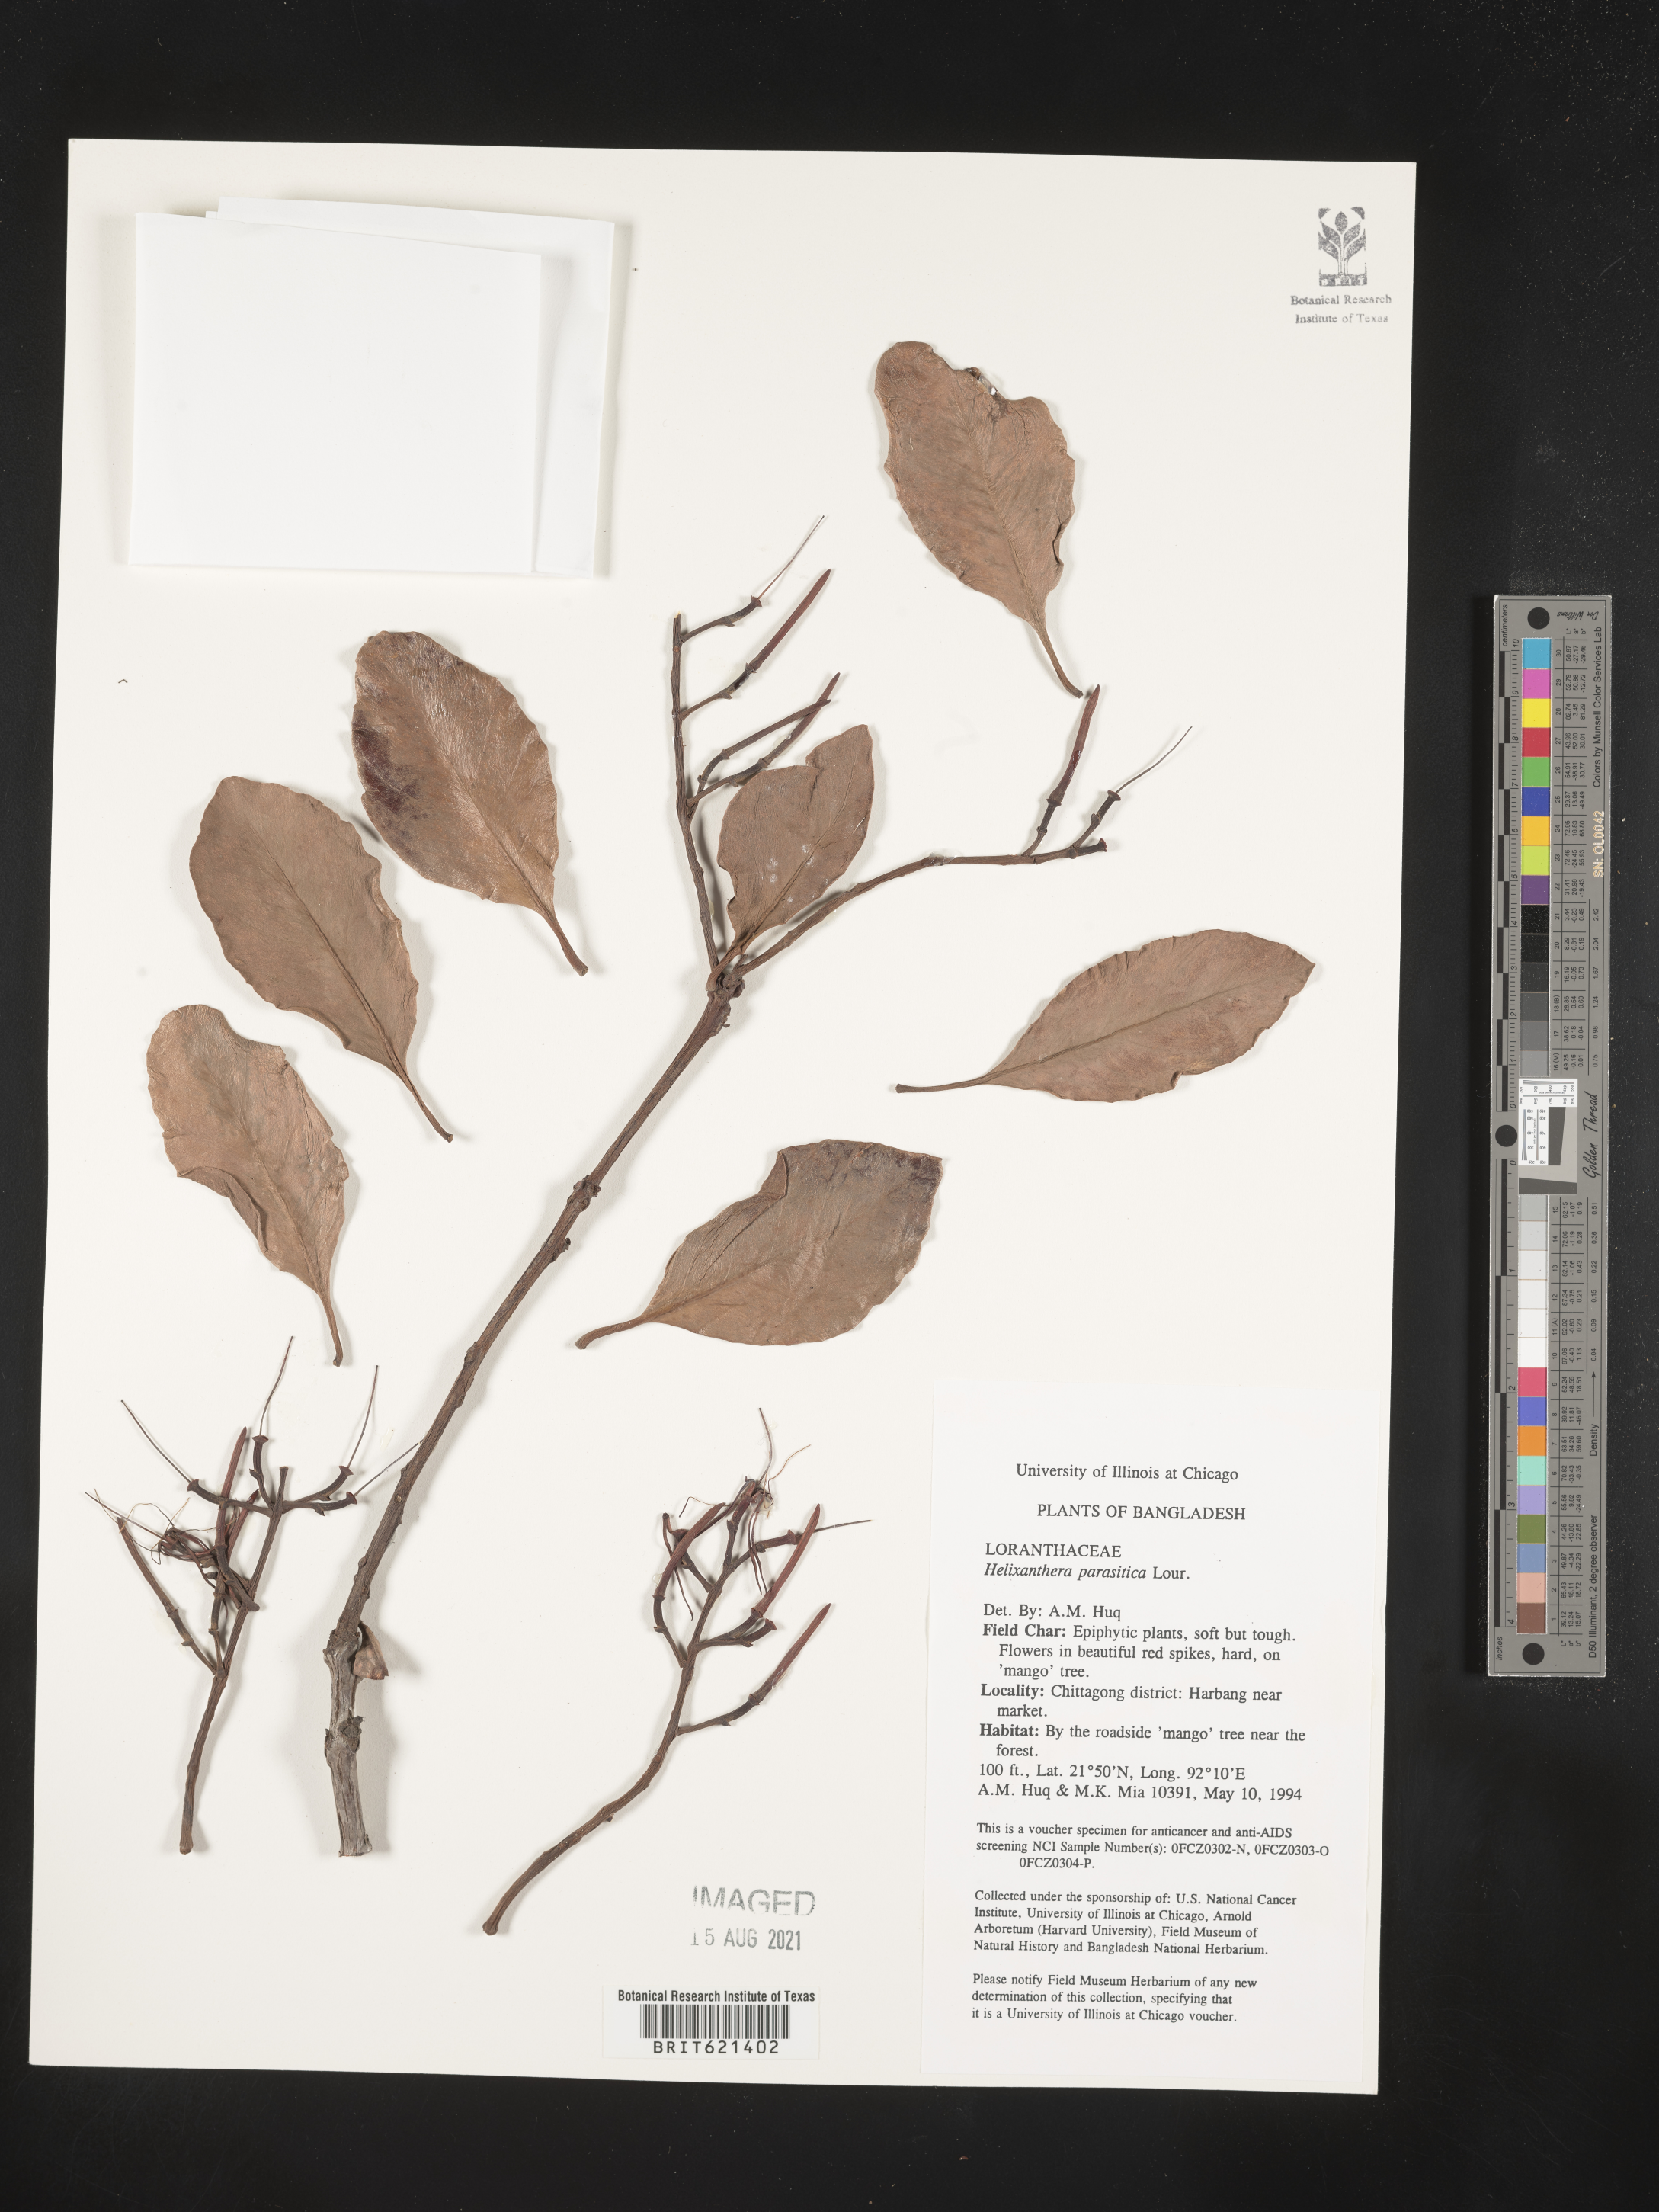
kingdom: Plantae
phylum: Tracheophyta
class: Magnoliopsida
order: Santalales
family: Loranthaceae
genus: Helixanthera
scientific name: Helixanthera parasitica
